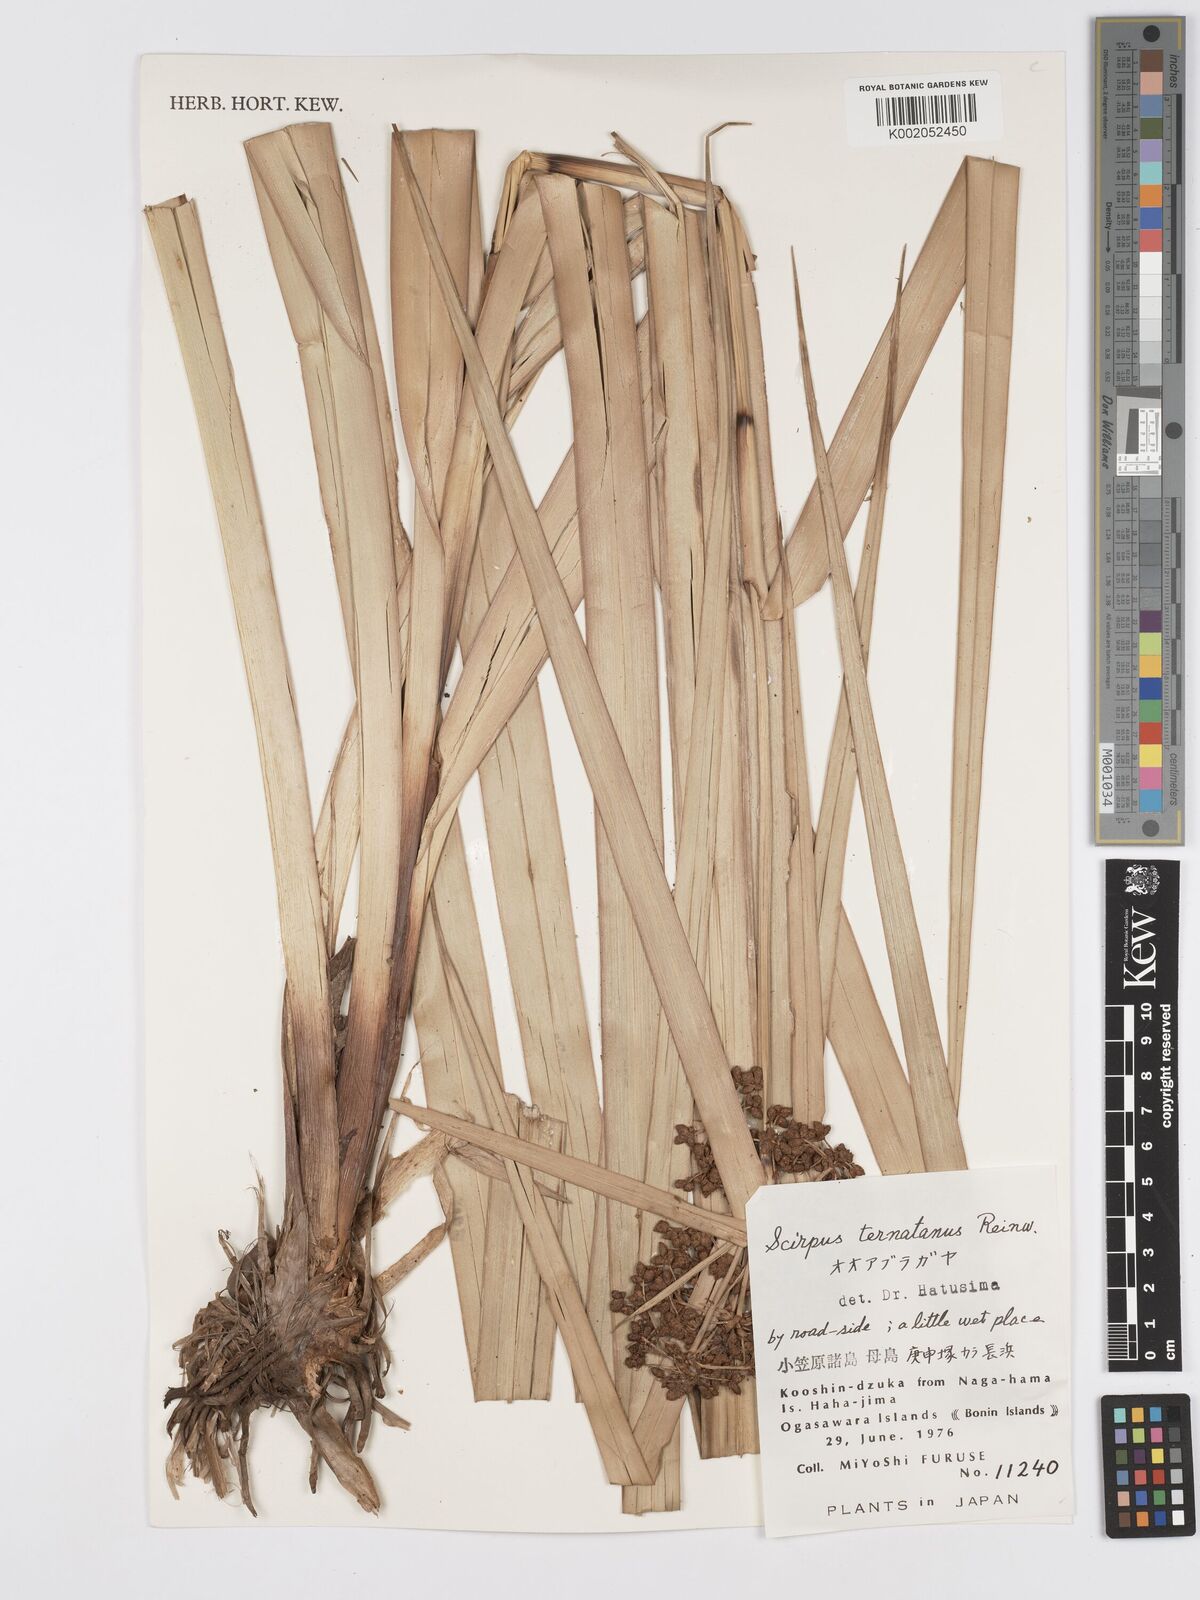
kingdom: Plantae
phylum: Tracheophyta
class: Liliopsida
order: Poales
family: Cyperaceae
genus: Scirpus
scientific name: Scirpus ternatanus
